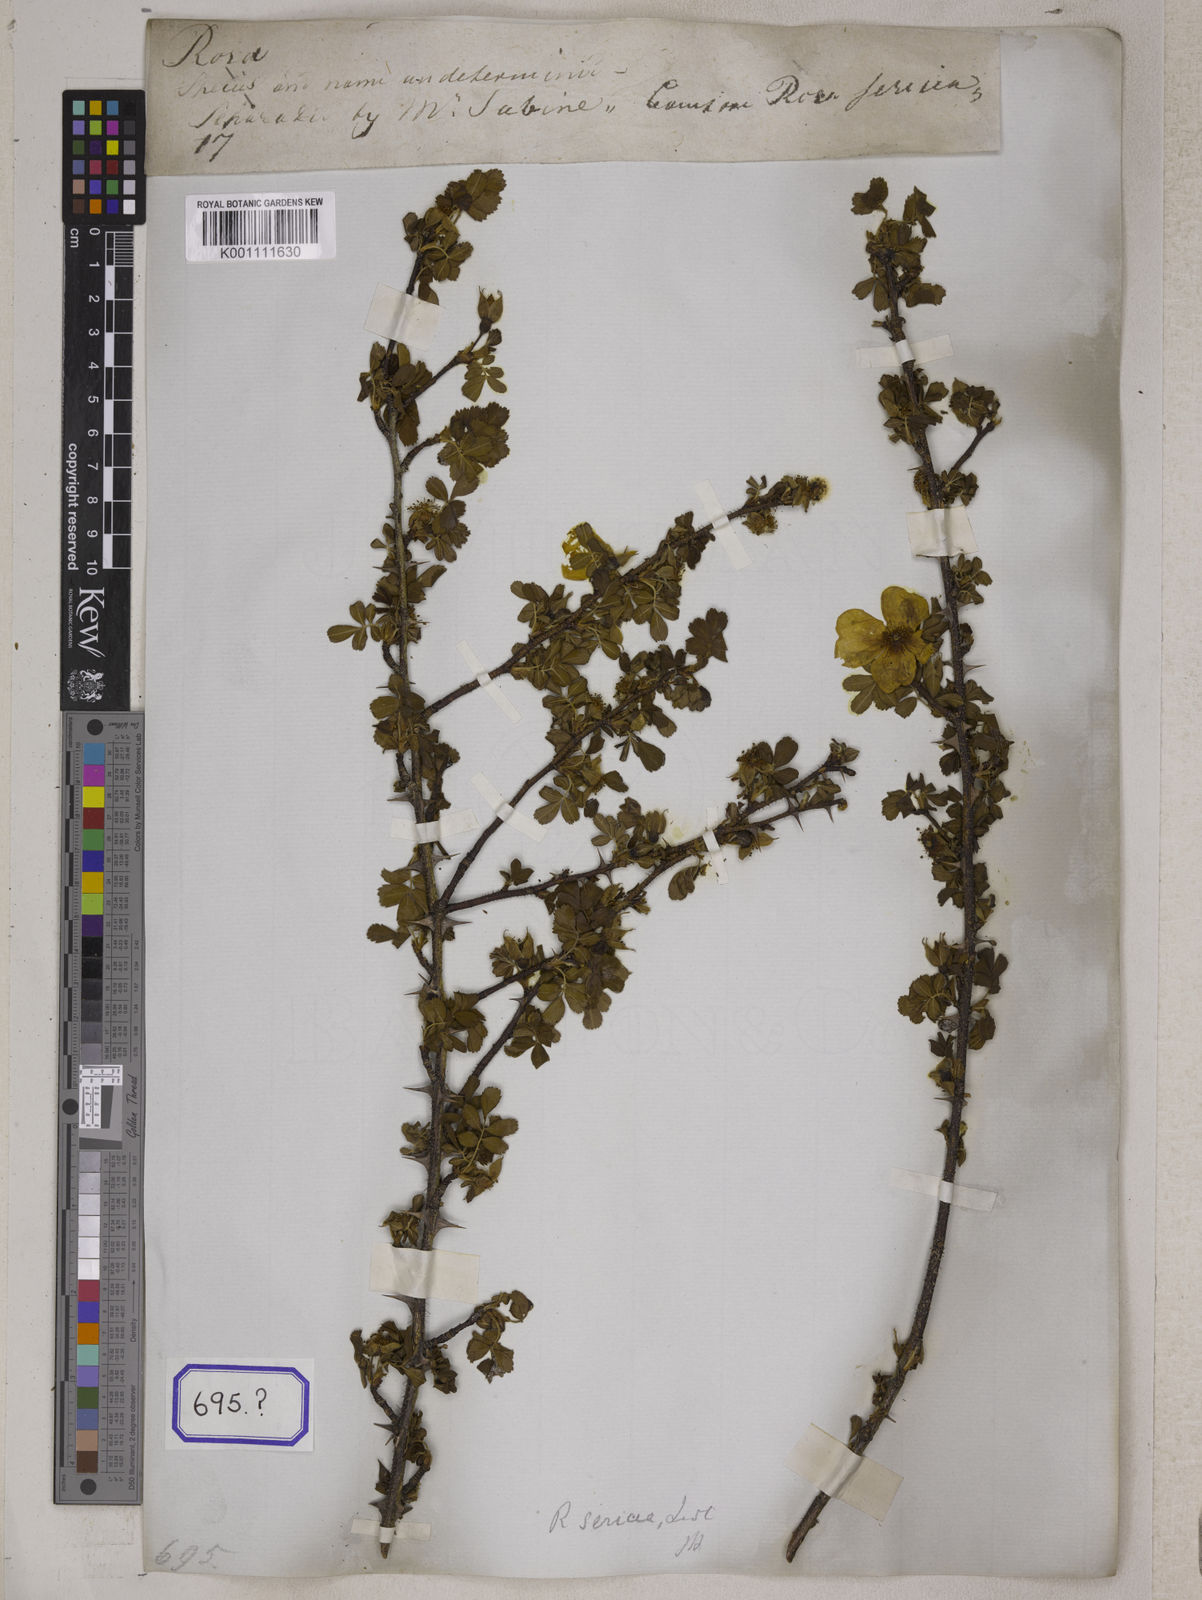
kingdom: Plantae
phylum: Tracheophyta
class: Magnoliopsida
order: Rosales
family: Rosaceae
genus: Rosa
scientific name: Rosa sericea
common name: Silky rose
